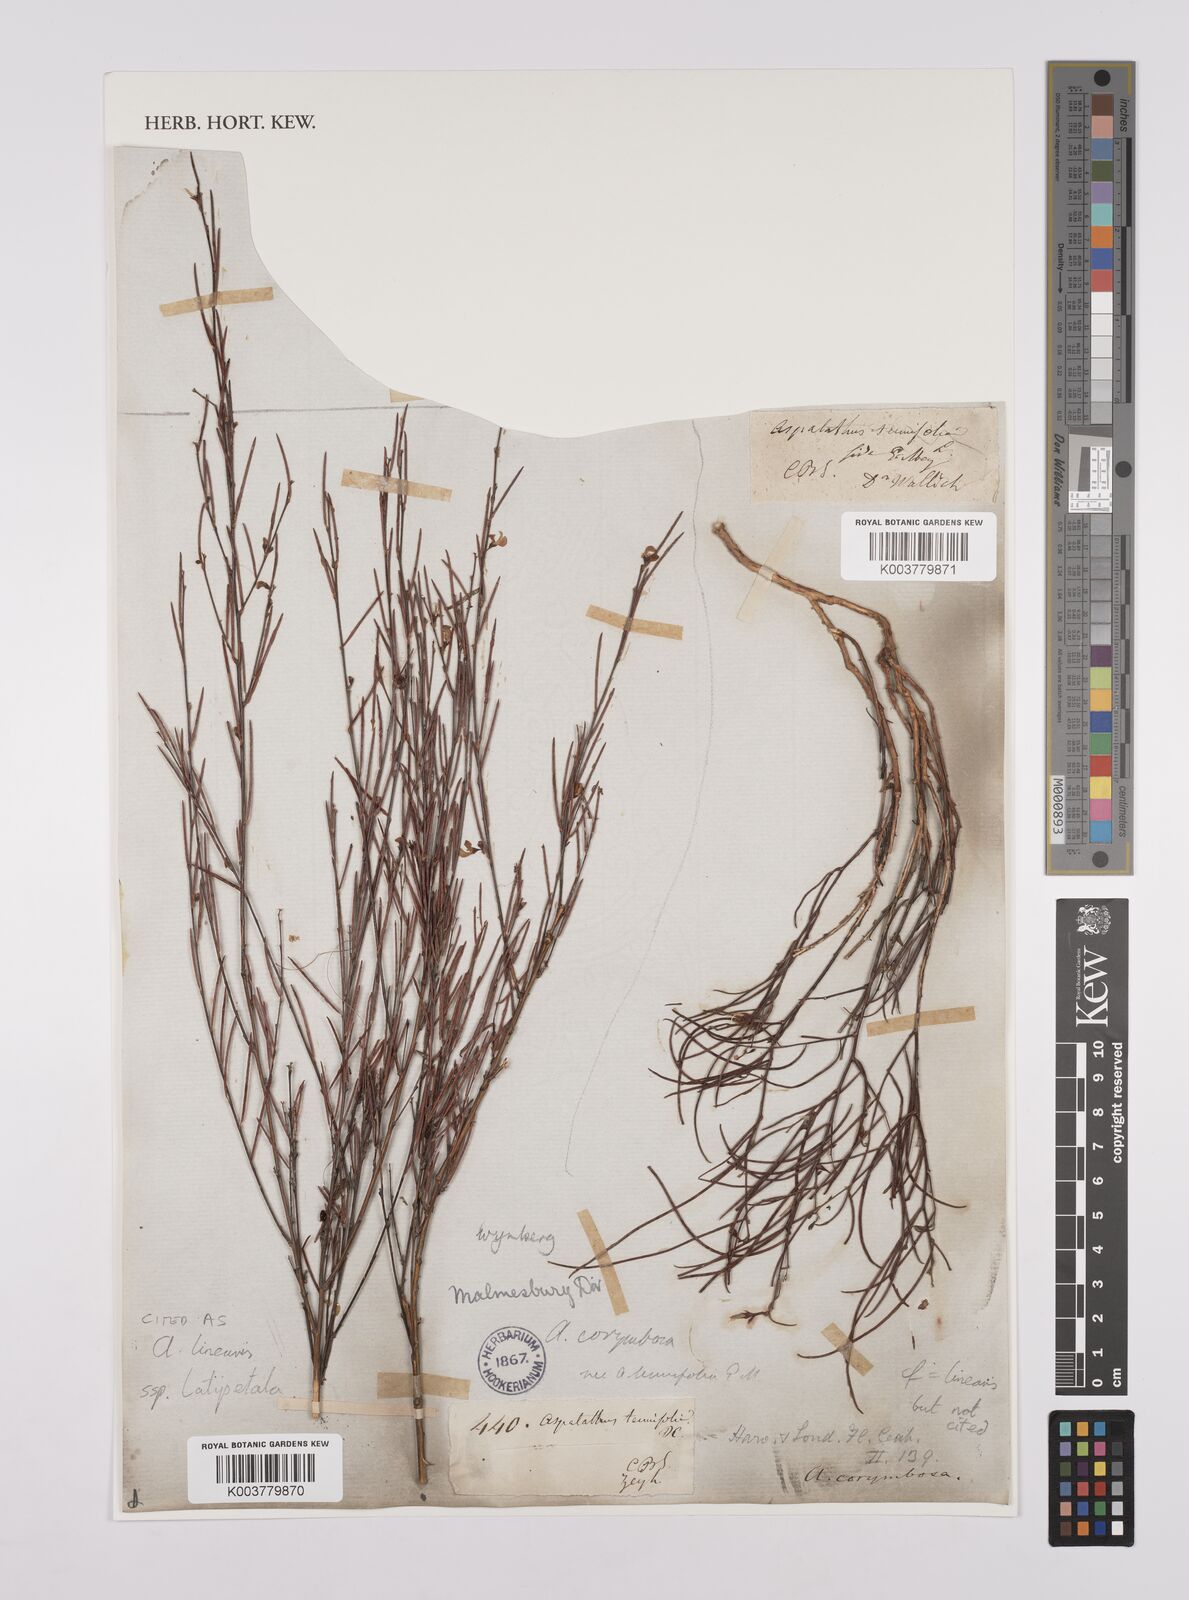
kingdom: Plantae
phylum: Tracheophyta
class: Magnoliopsida
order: Fabales
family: Fabaceae
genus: Aspalathus
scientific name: Aspalathus lebeckioides
